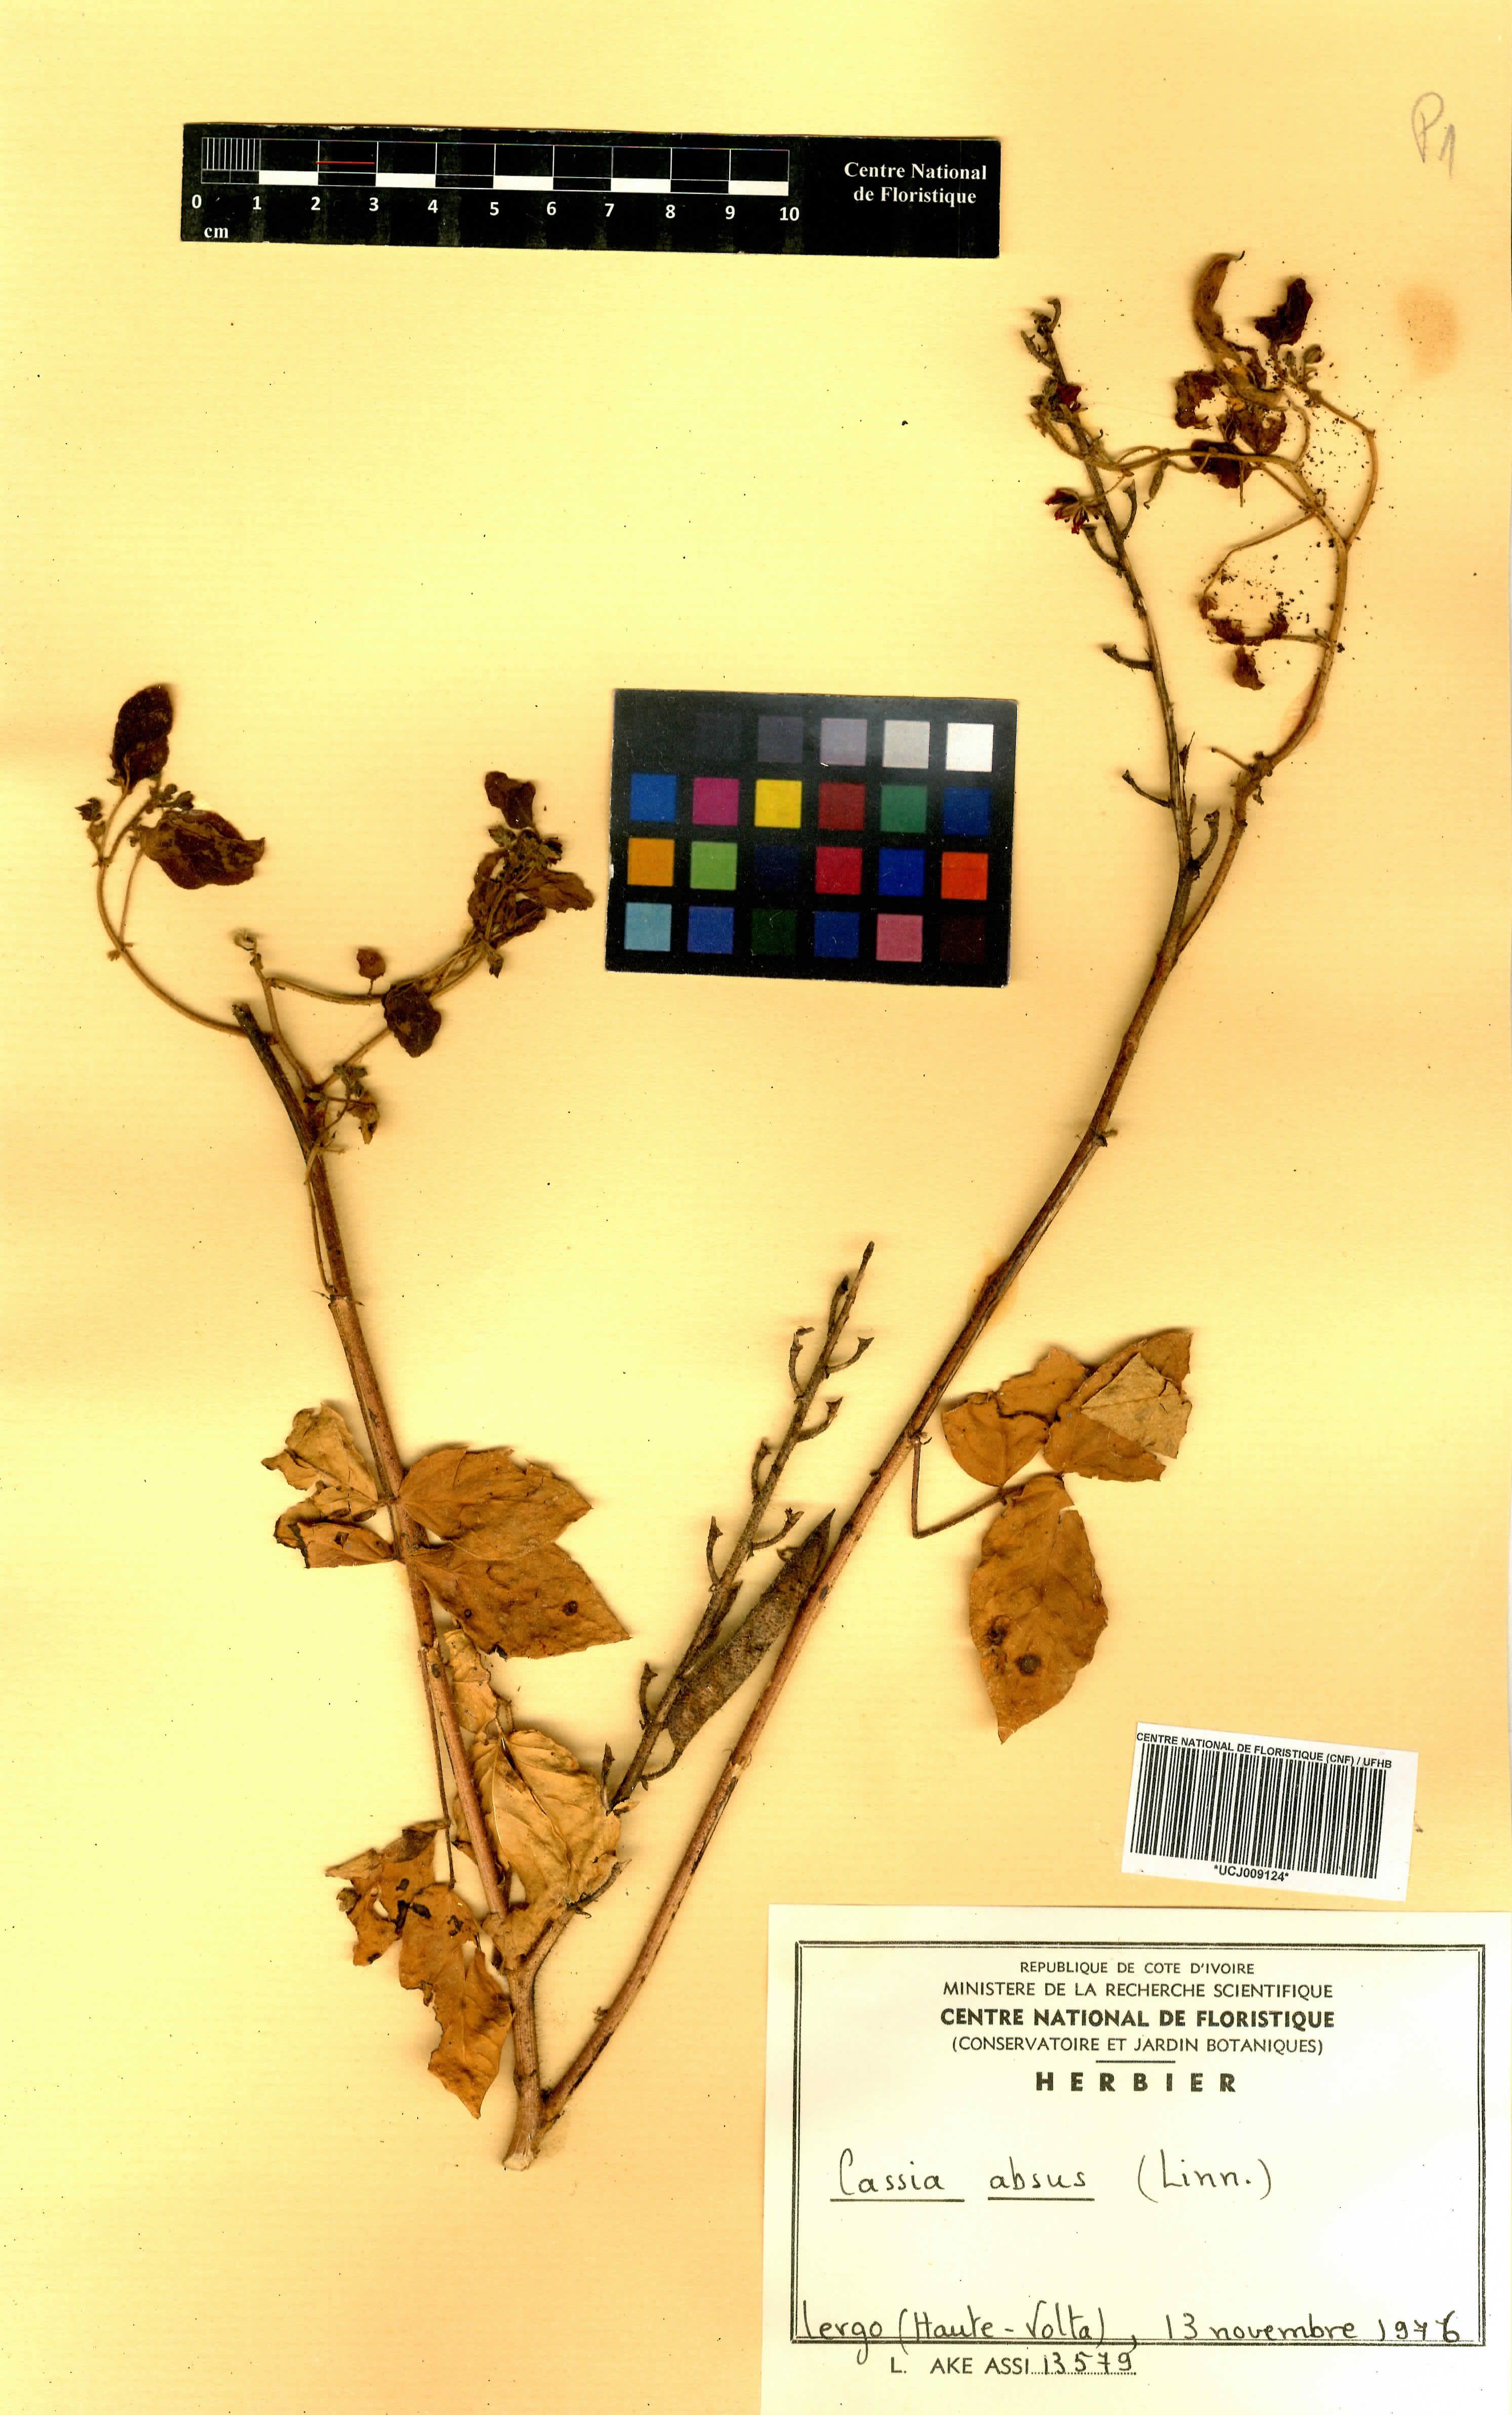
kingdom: Plantae
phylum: Tracheophyta
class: Magnoliopsida
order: Fabales
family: Fabaceae
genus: Chamaecrista
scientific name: Chamaecrista absus
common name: Tropical sensitive pea
